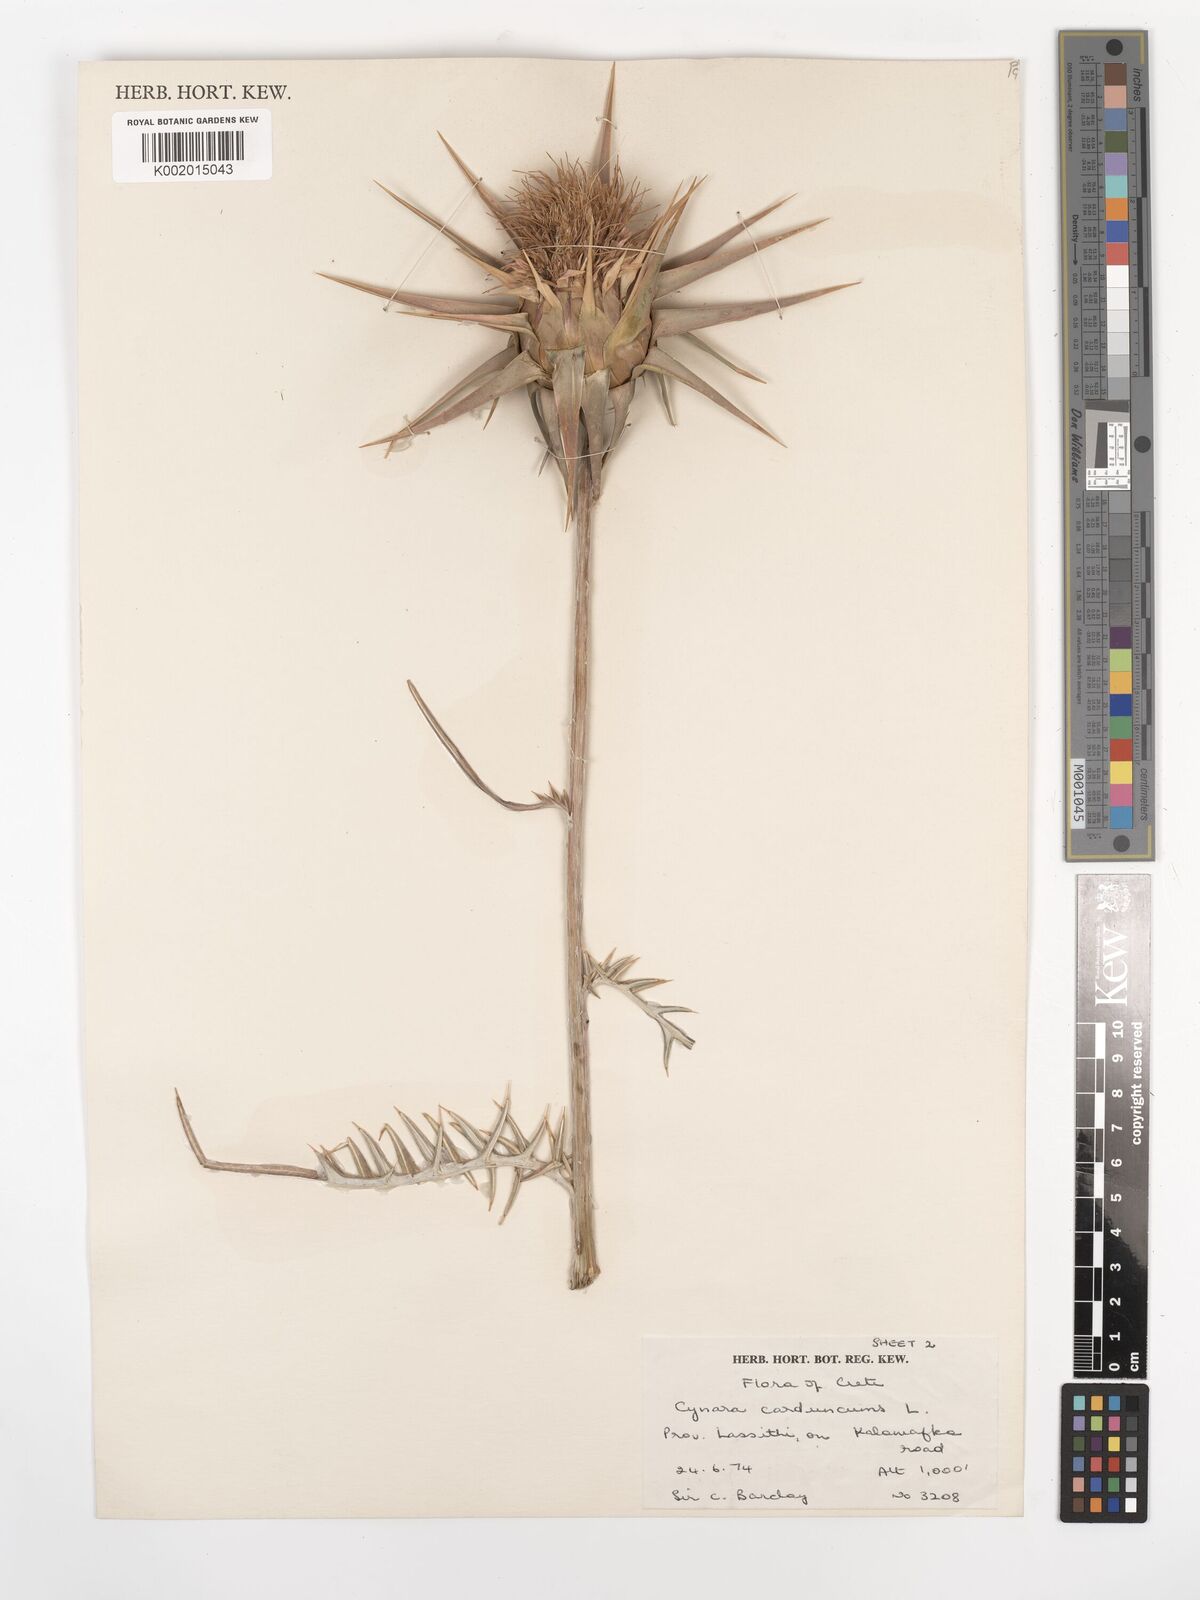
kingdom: Plantae
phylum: Tracheophyta
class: Magnoliopsida
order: Asterales
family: Asteraceae
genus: Cynara
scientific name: Cynara cardunculus
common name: Globe artichoke
